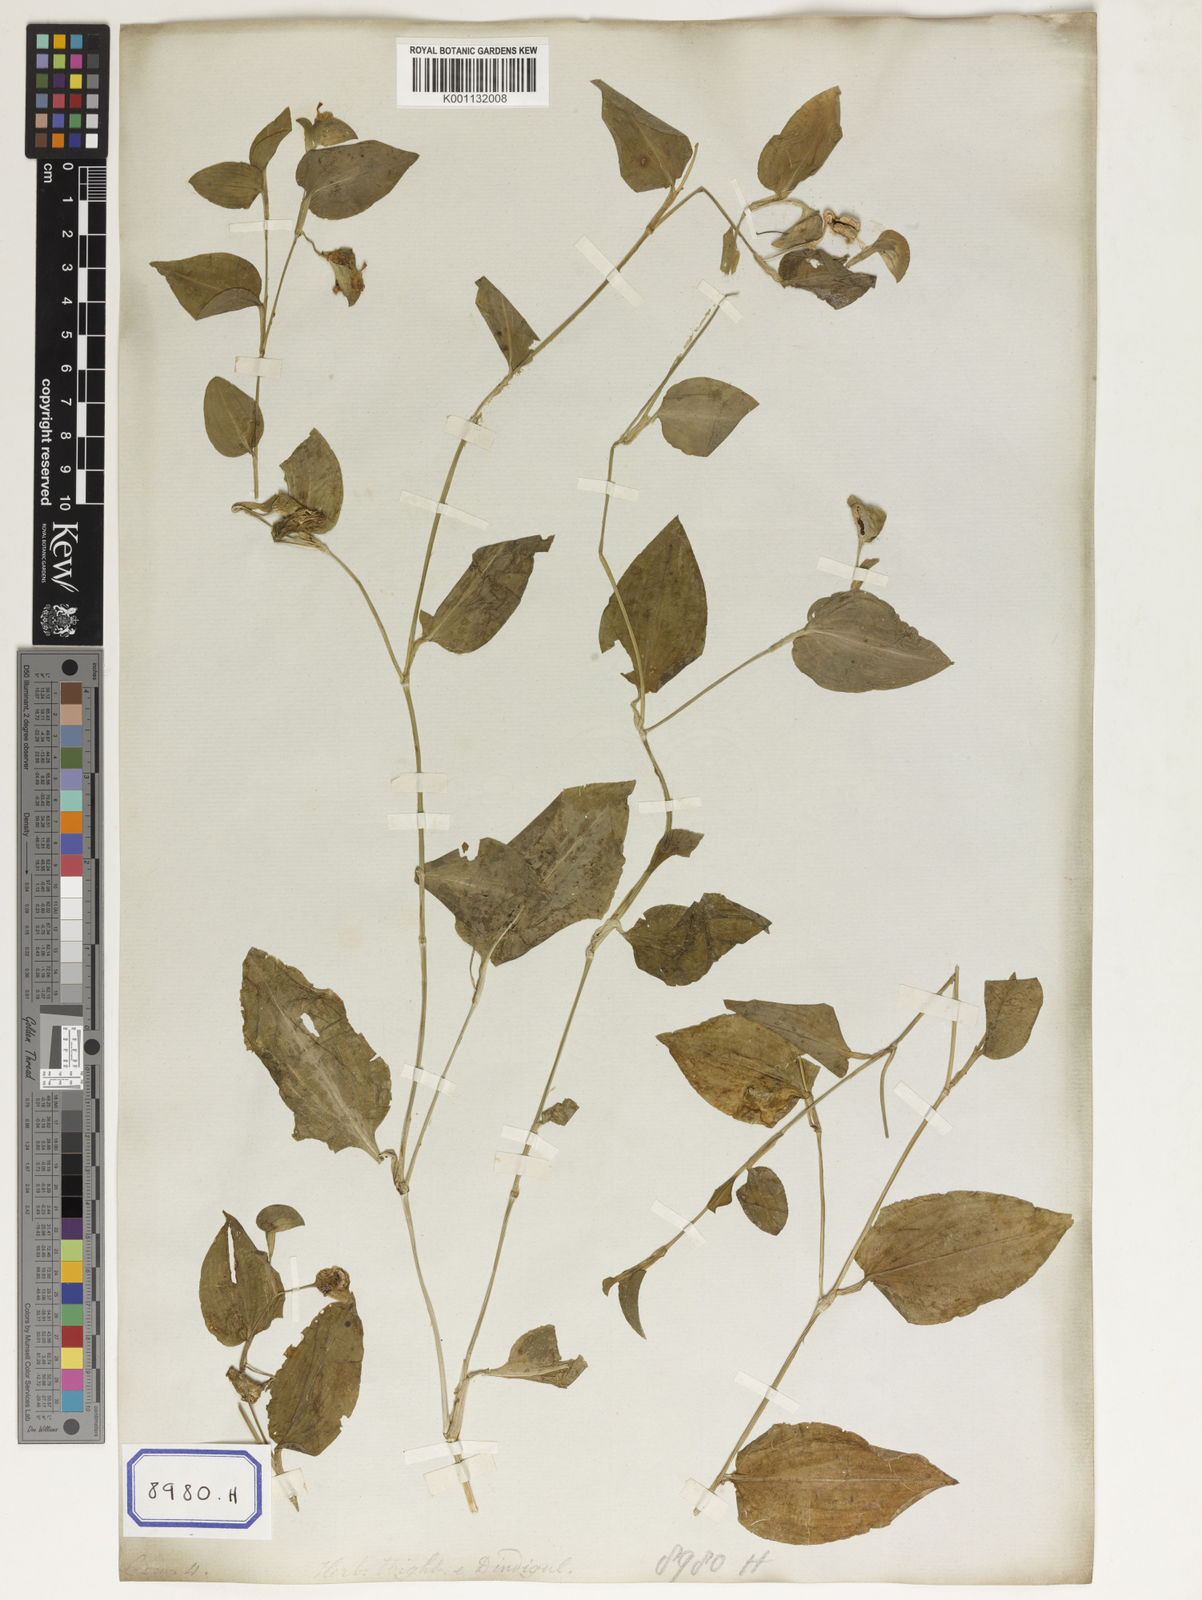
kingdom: Plantae
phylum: Tracheophyta
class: Liliopsida
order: Commelinales
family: Commelinaceae
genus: Commelina
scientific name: Commelina benghalensis
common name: Jio
